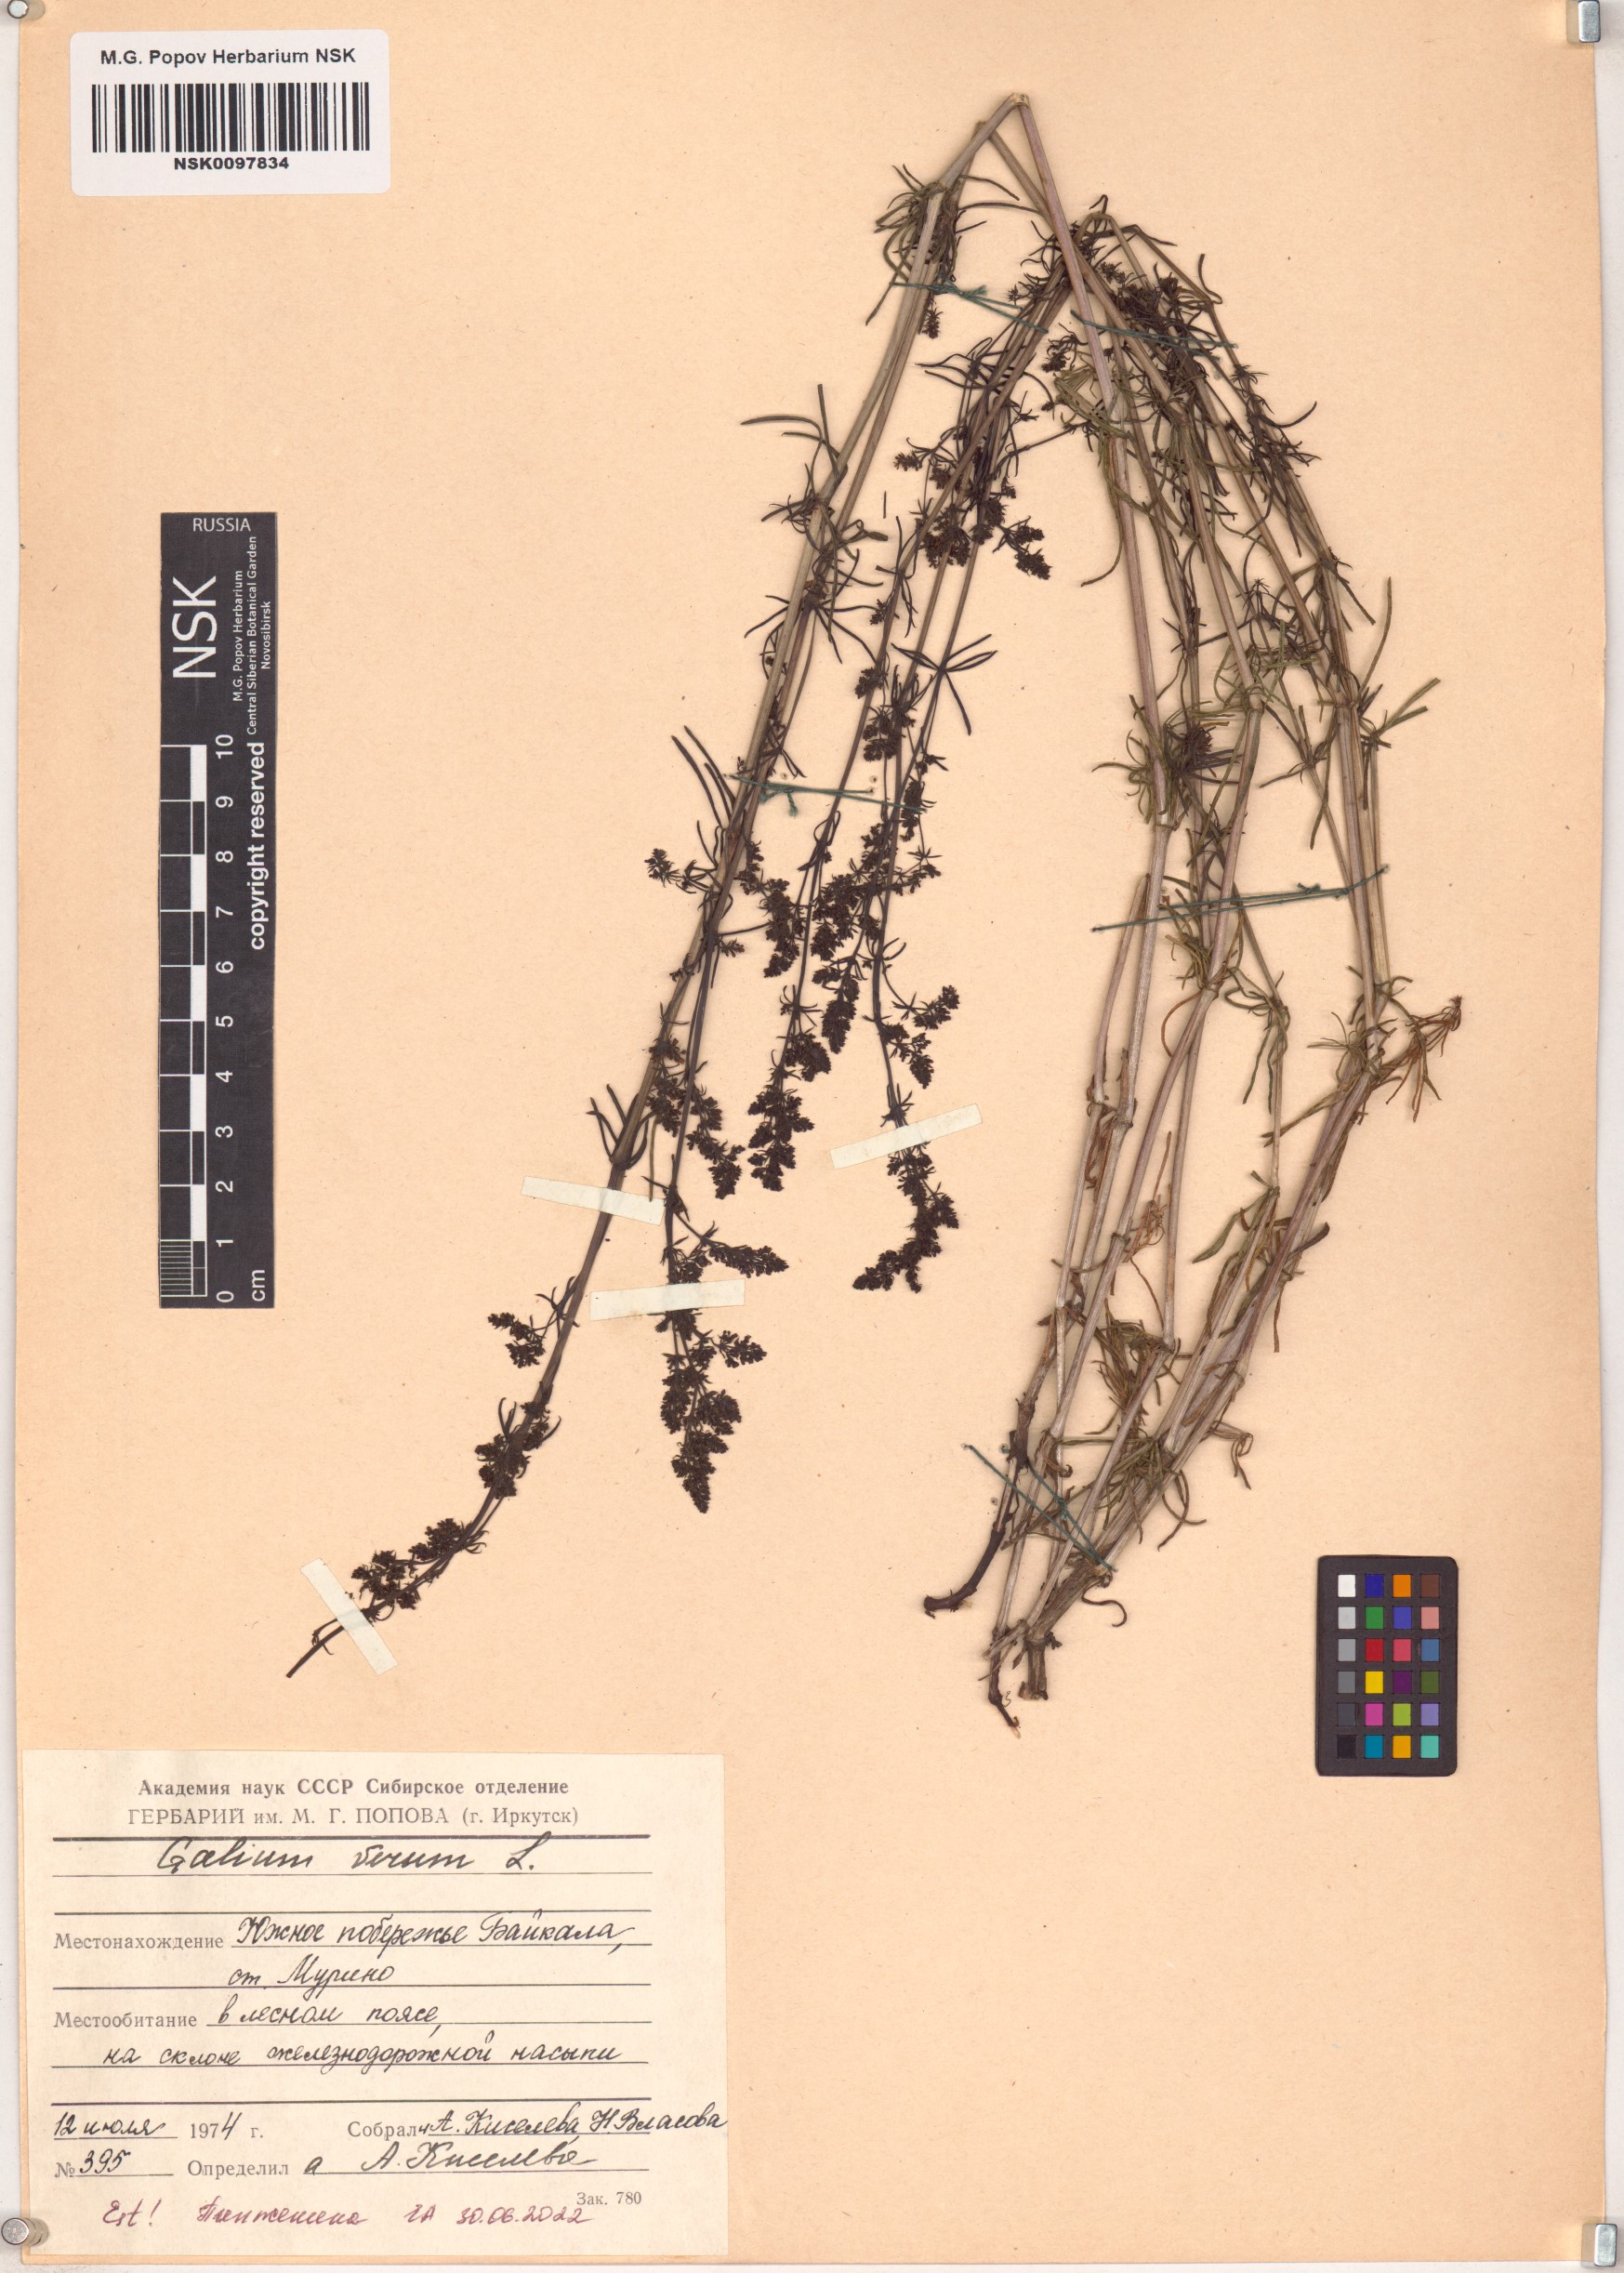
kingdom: Plantae
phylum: Tracheophyta
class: Magnoliopsida
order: Gentianales
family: Rubiaceae
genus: Galium
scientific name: Galium verum
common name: Lady's bedstraw
